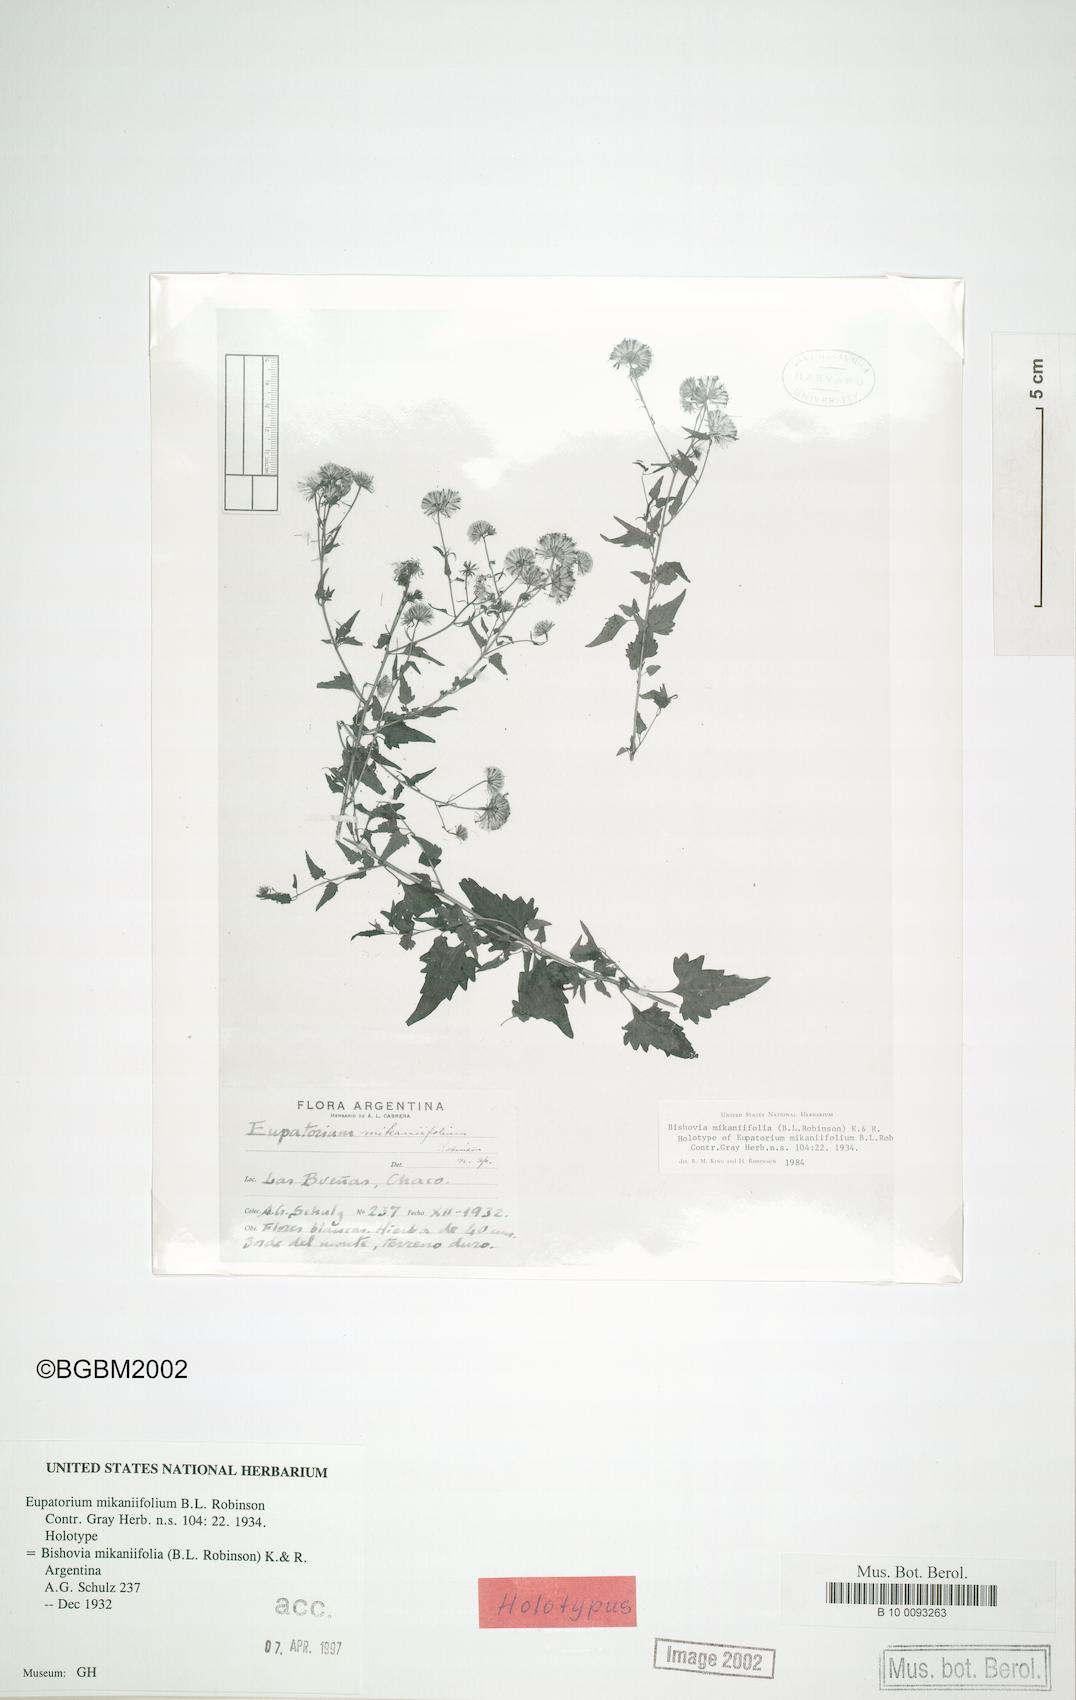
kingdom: Plantae
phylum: Tracheophyta
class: Magnoliopsida
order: Asterales
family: Asteraceae
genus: Bishovia
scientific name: Bishovia mikaniifolia
